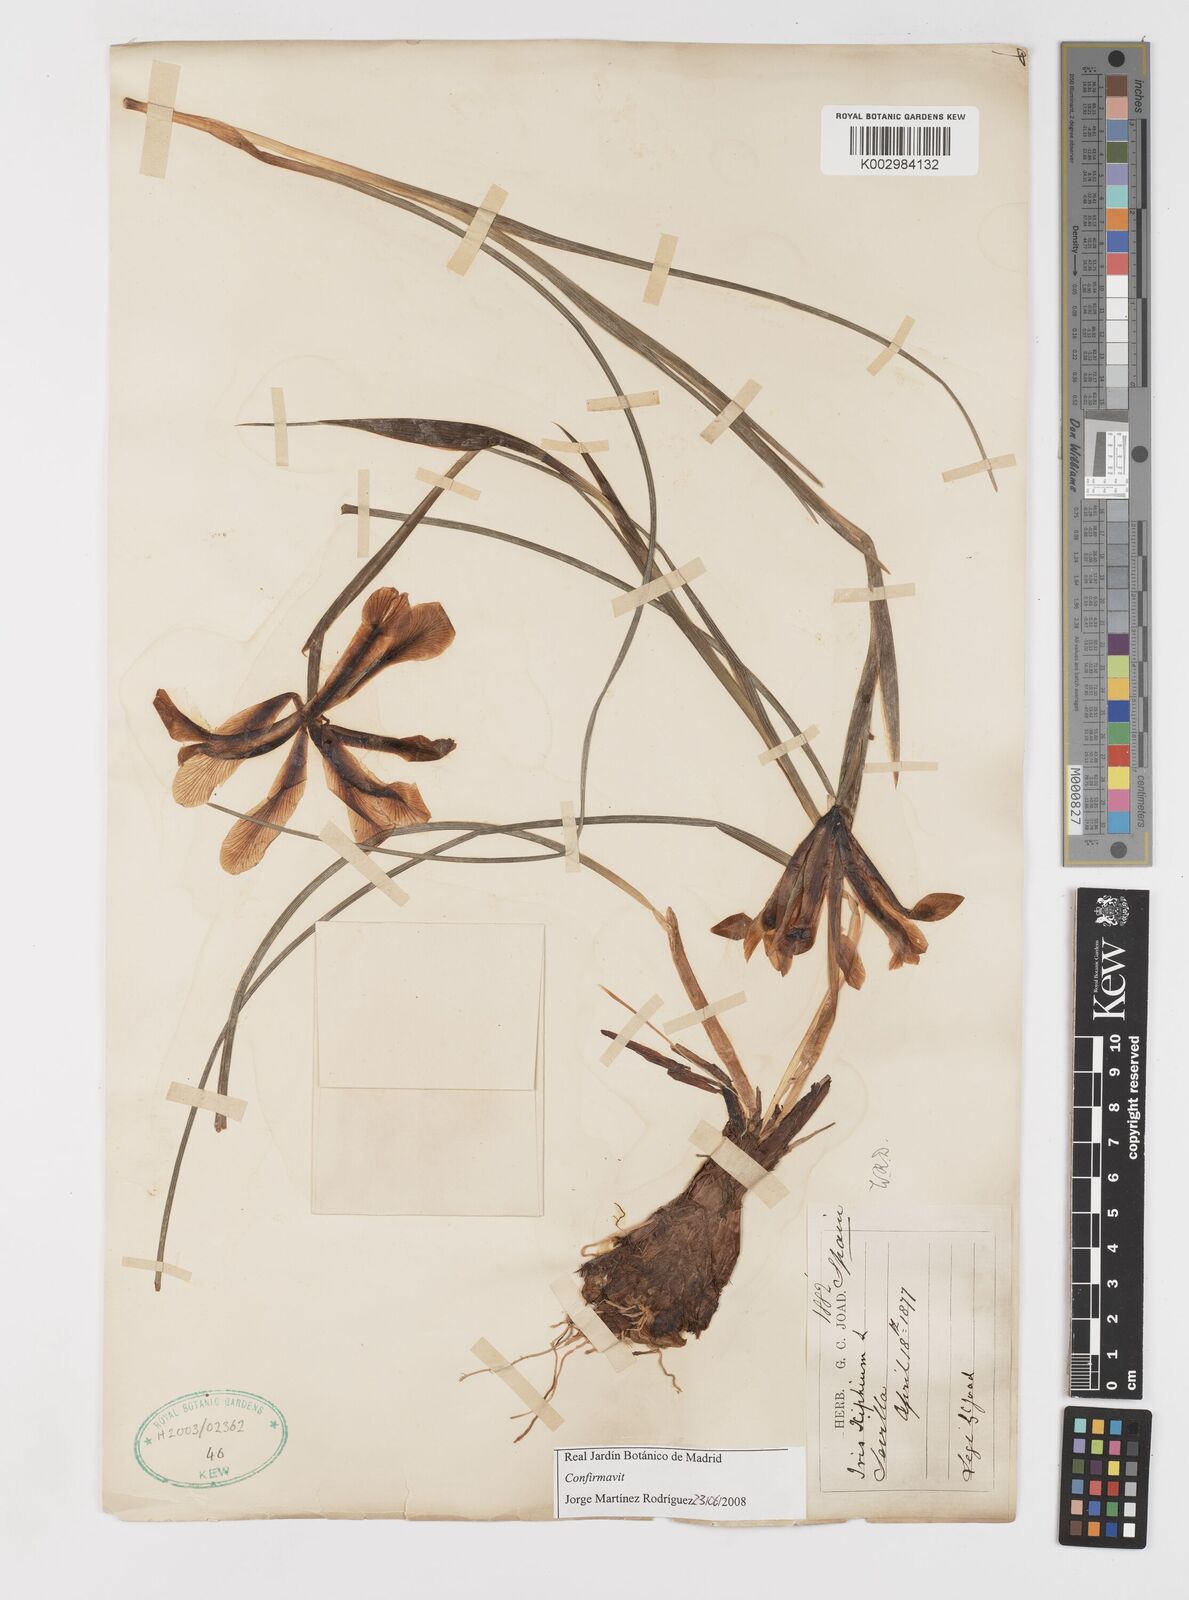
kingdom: Plantae
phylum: Tracheophyta
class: Liliopsida
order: Asparagales
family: Iridaceae
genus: Iris
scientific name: Iris xiphium
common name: Spanish iris
